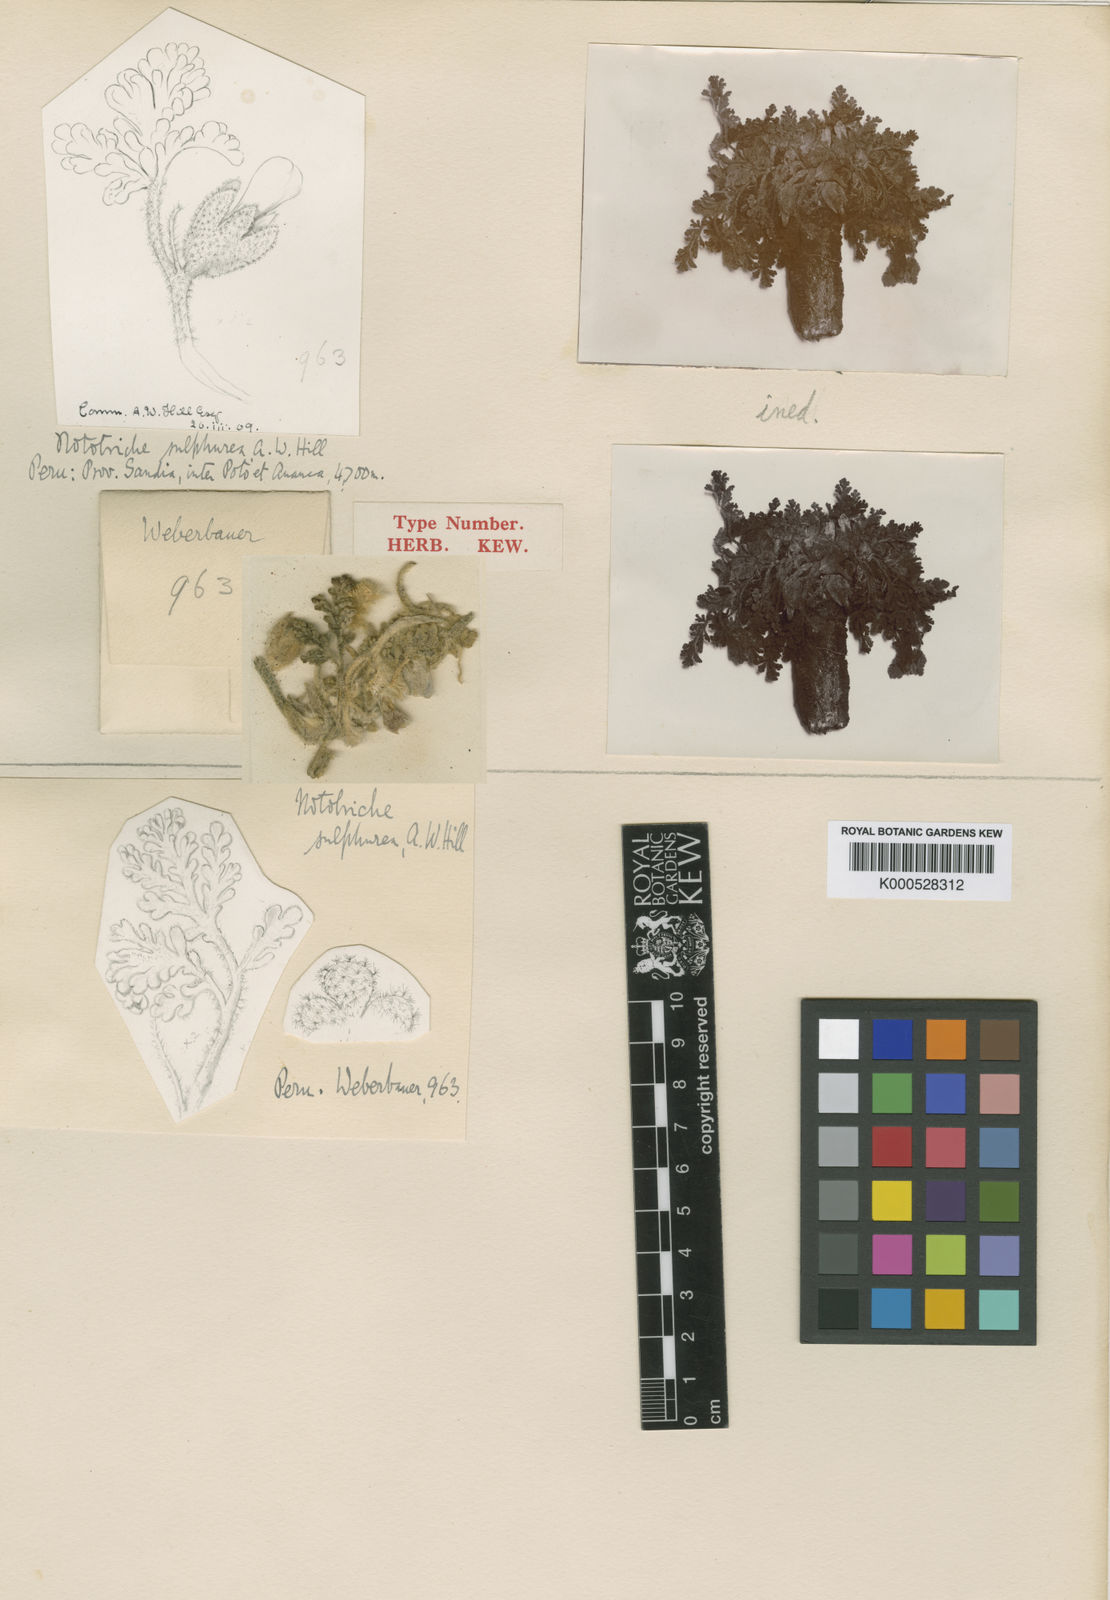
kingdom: Plantae
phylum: Tracheophyta
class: Magnoliopsida
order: Malvales
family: Malvaceae
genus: Nototriche
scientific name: Nototriche sulphurea
